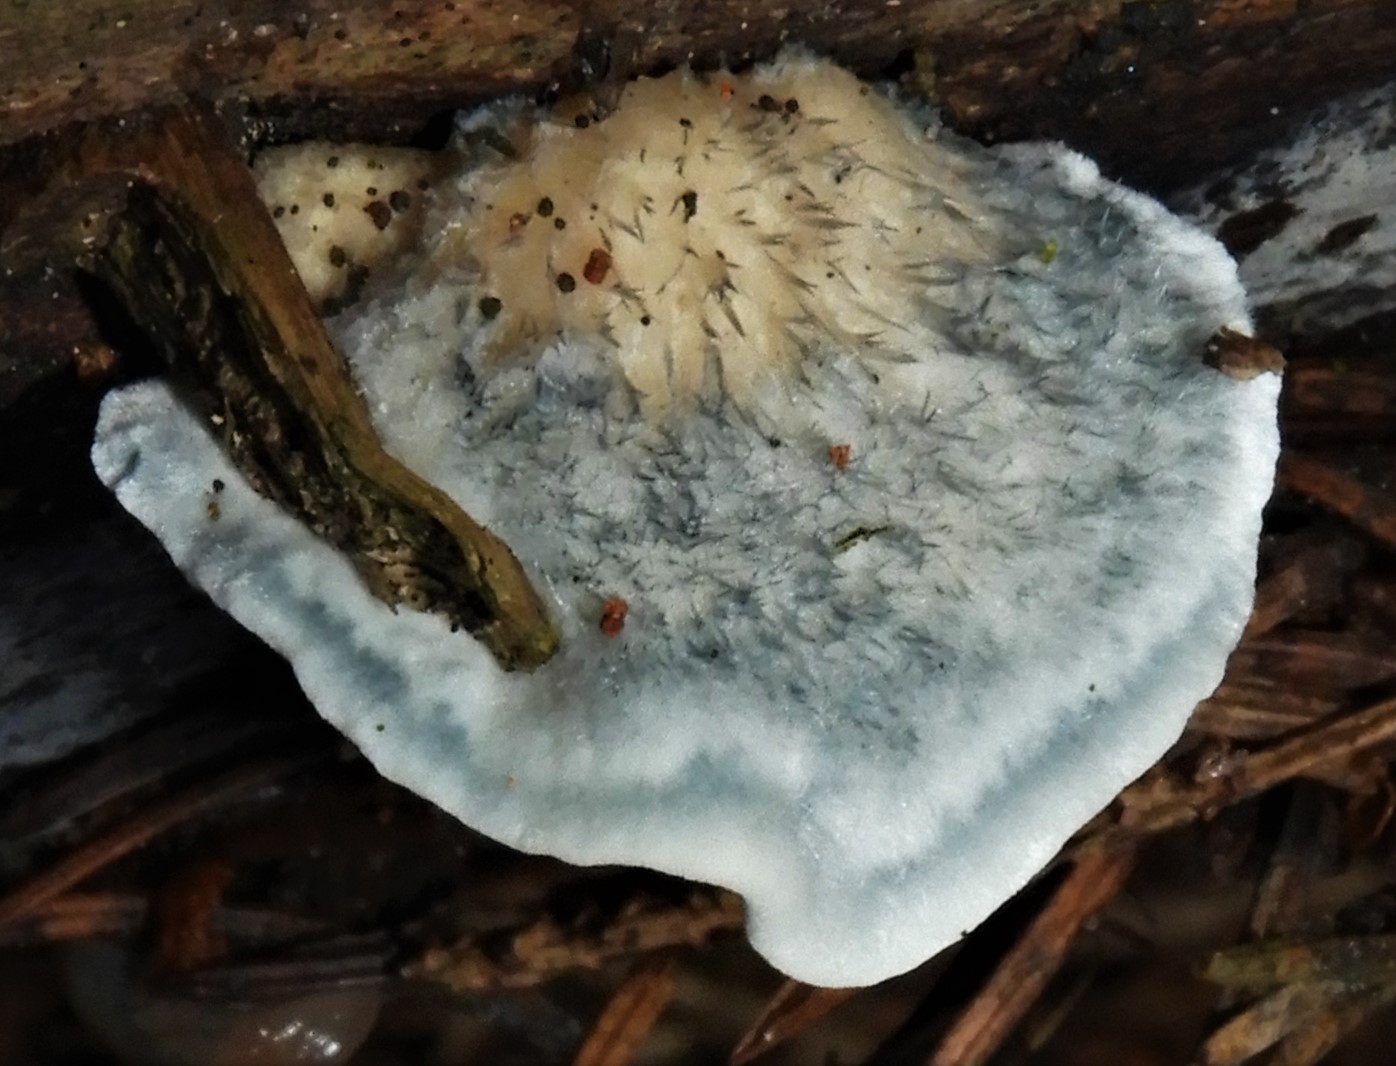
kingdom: Fungi
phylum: Basidiomycota
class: Agaricomycetes
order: Polyporales
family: Polyporaceae
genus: Cyanosporus
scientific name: Cyanosporus alni
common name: blegblå kødporesvamp
